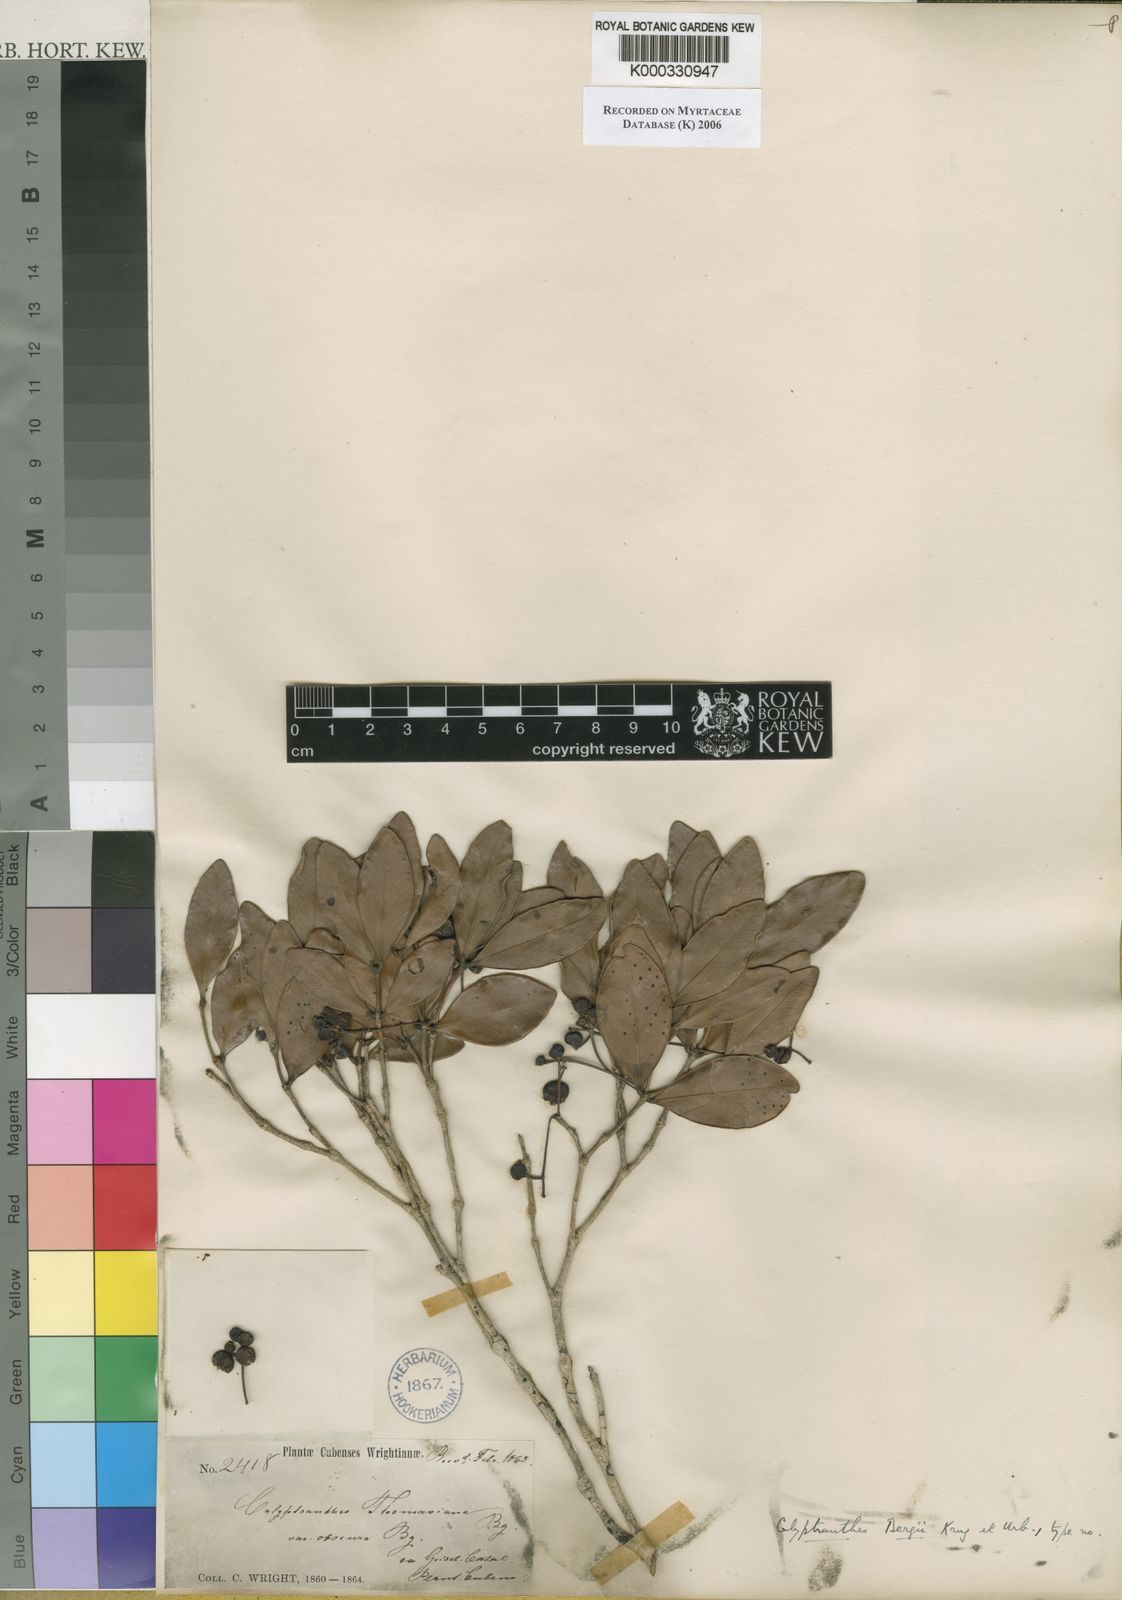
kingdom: Plantae
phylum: Tracheophyta
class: Magnoliopsida
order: Myrtales
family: Myrtaceae
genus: Myrcia
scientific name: Myrcia bergii
